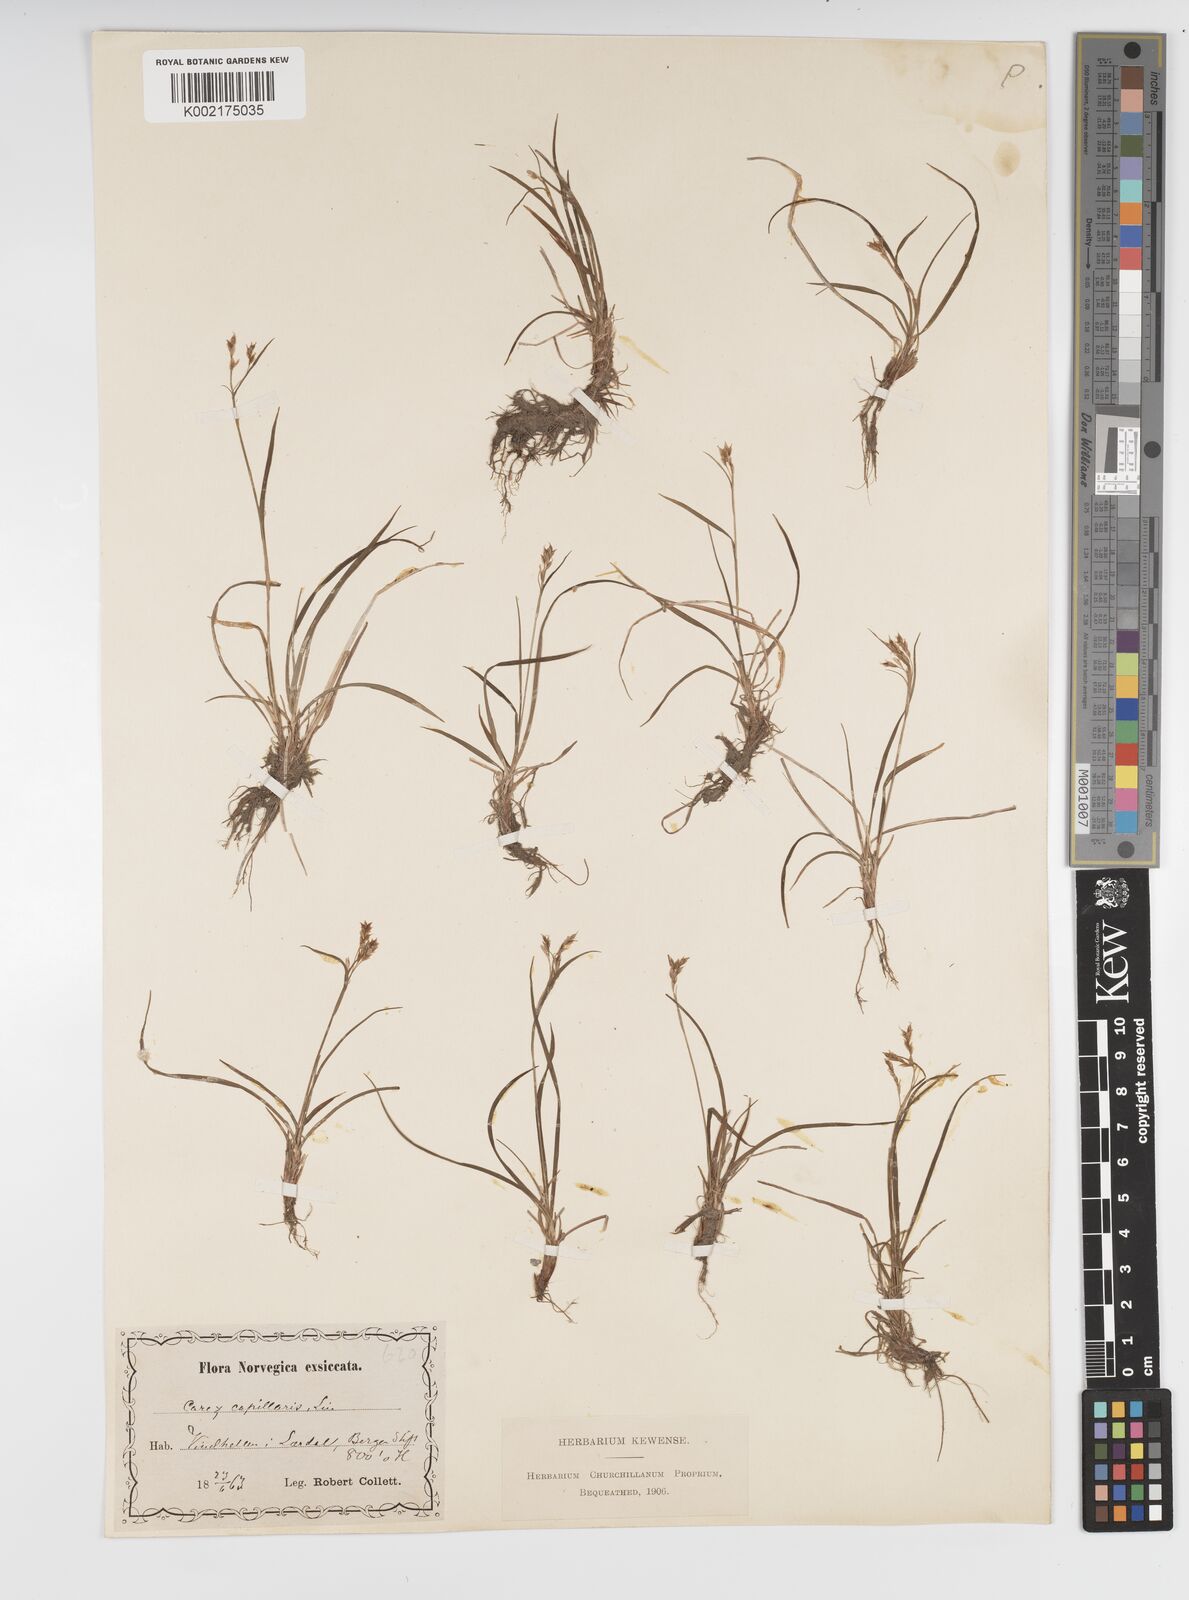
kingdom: Plantae
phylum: Tracheophyta
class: Liliopsida
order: Poales
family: Cyperaceae
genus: Carex
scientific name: Carex capillaris
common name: Hair sedge
